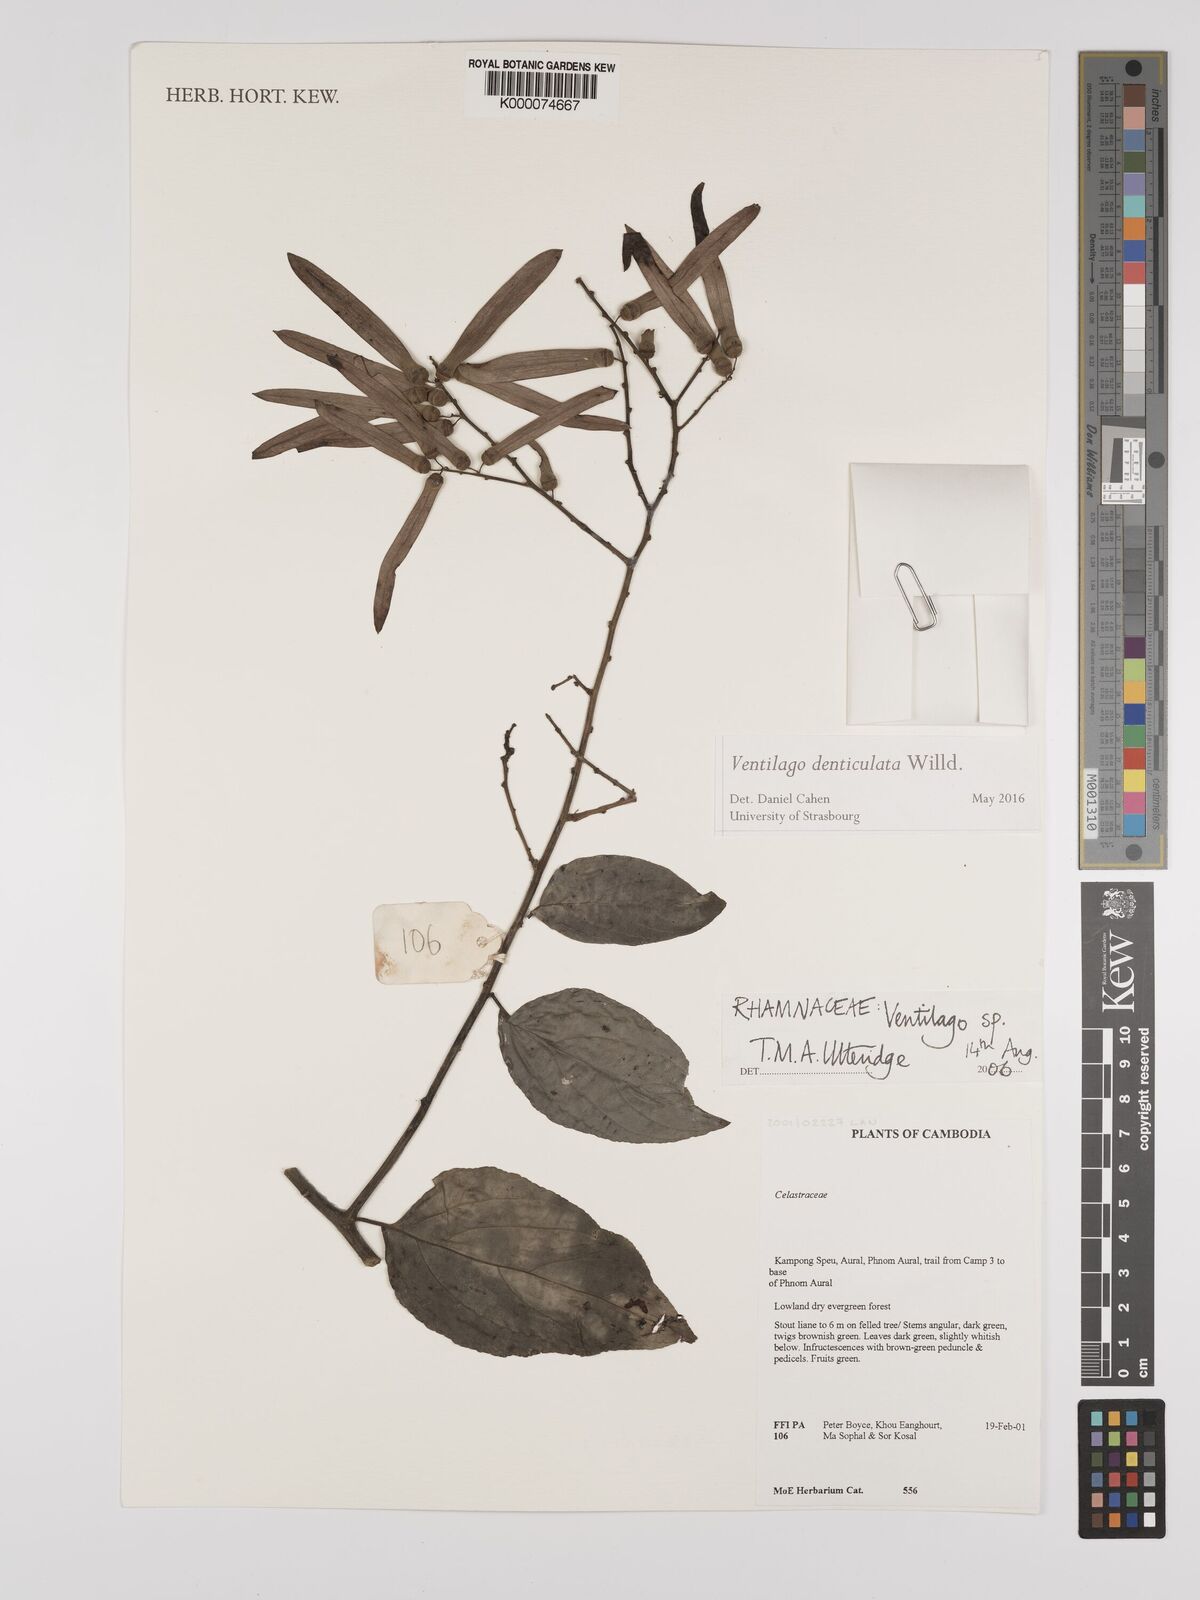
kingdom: Plantae
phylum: Tracheophyta
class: Magnoliopsida
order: Rosales
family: Rhamnaceae
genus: Ventilago
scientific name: Ventilago
